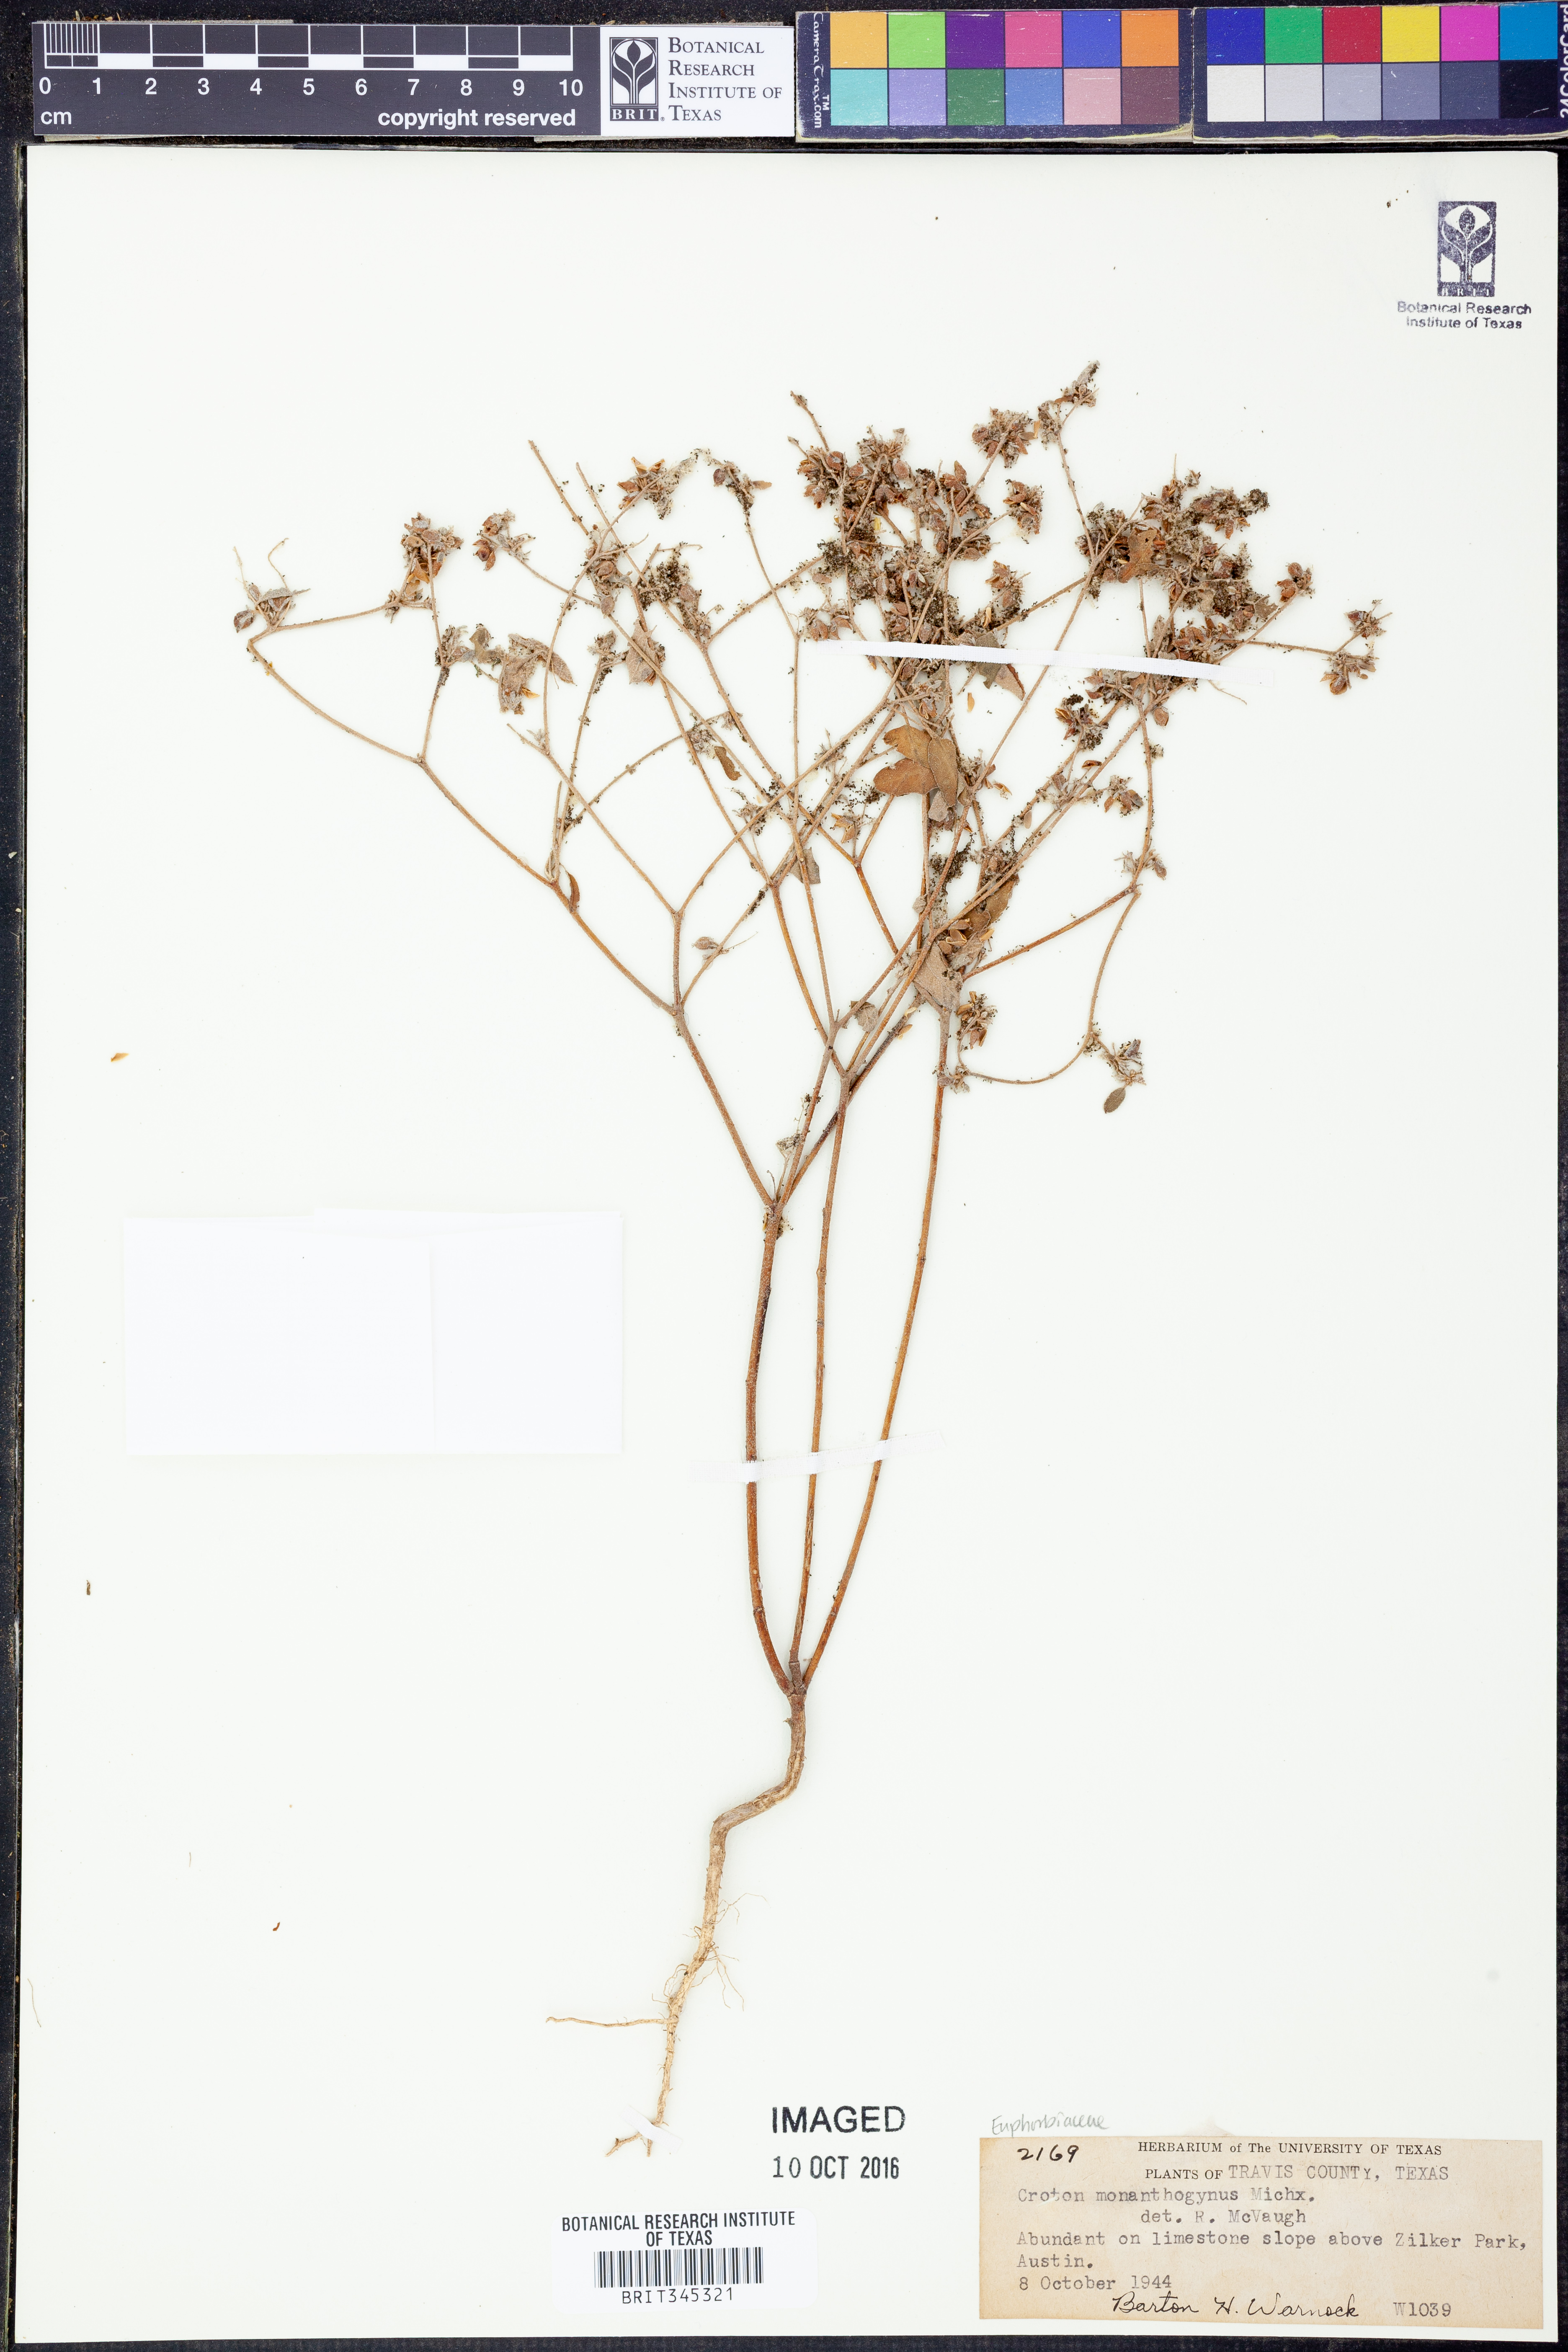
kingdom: Plantae
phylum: Tracheophyta
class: Magnoliopsida
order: Malpighiales
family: Euphorbiaceae
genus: Croton
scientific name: Croton monanthogynus
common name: One-seed croton
